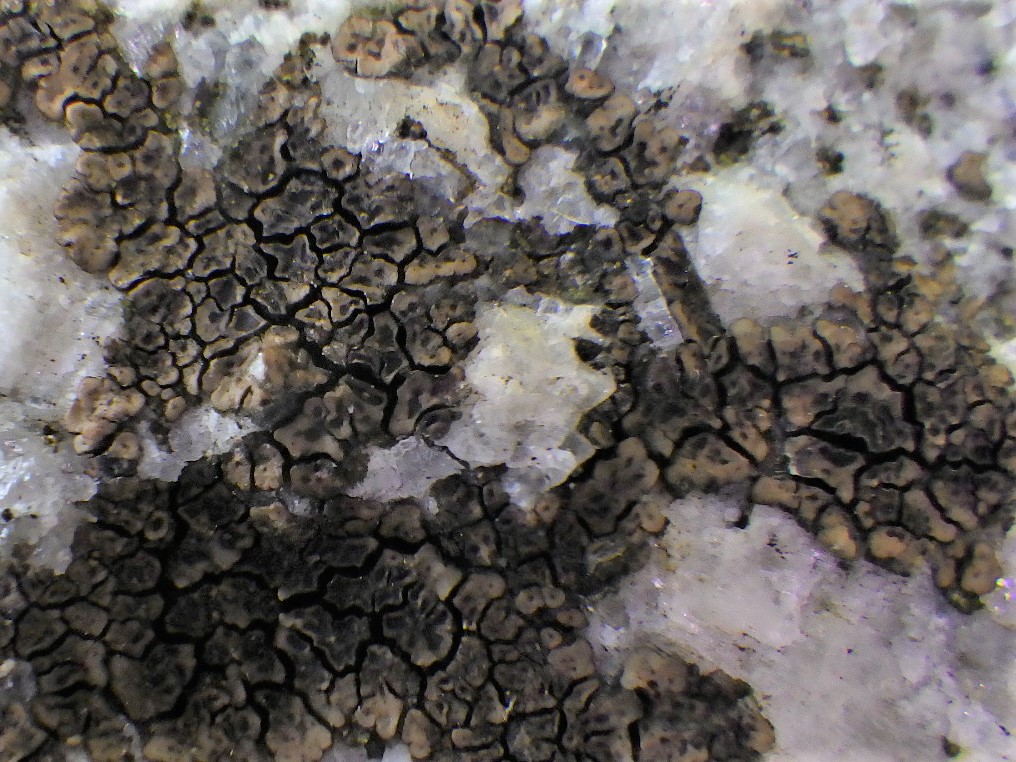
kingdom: Fungi
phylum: Ascomycota
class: Lecanoromycetes
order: Acarosporales
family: Acarosporaceae
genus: Acarospora
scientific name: Acarospora fuscata
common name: brun småsporelav
